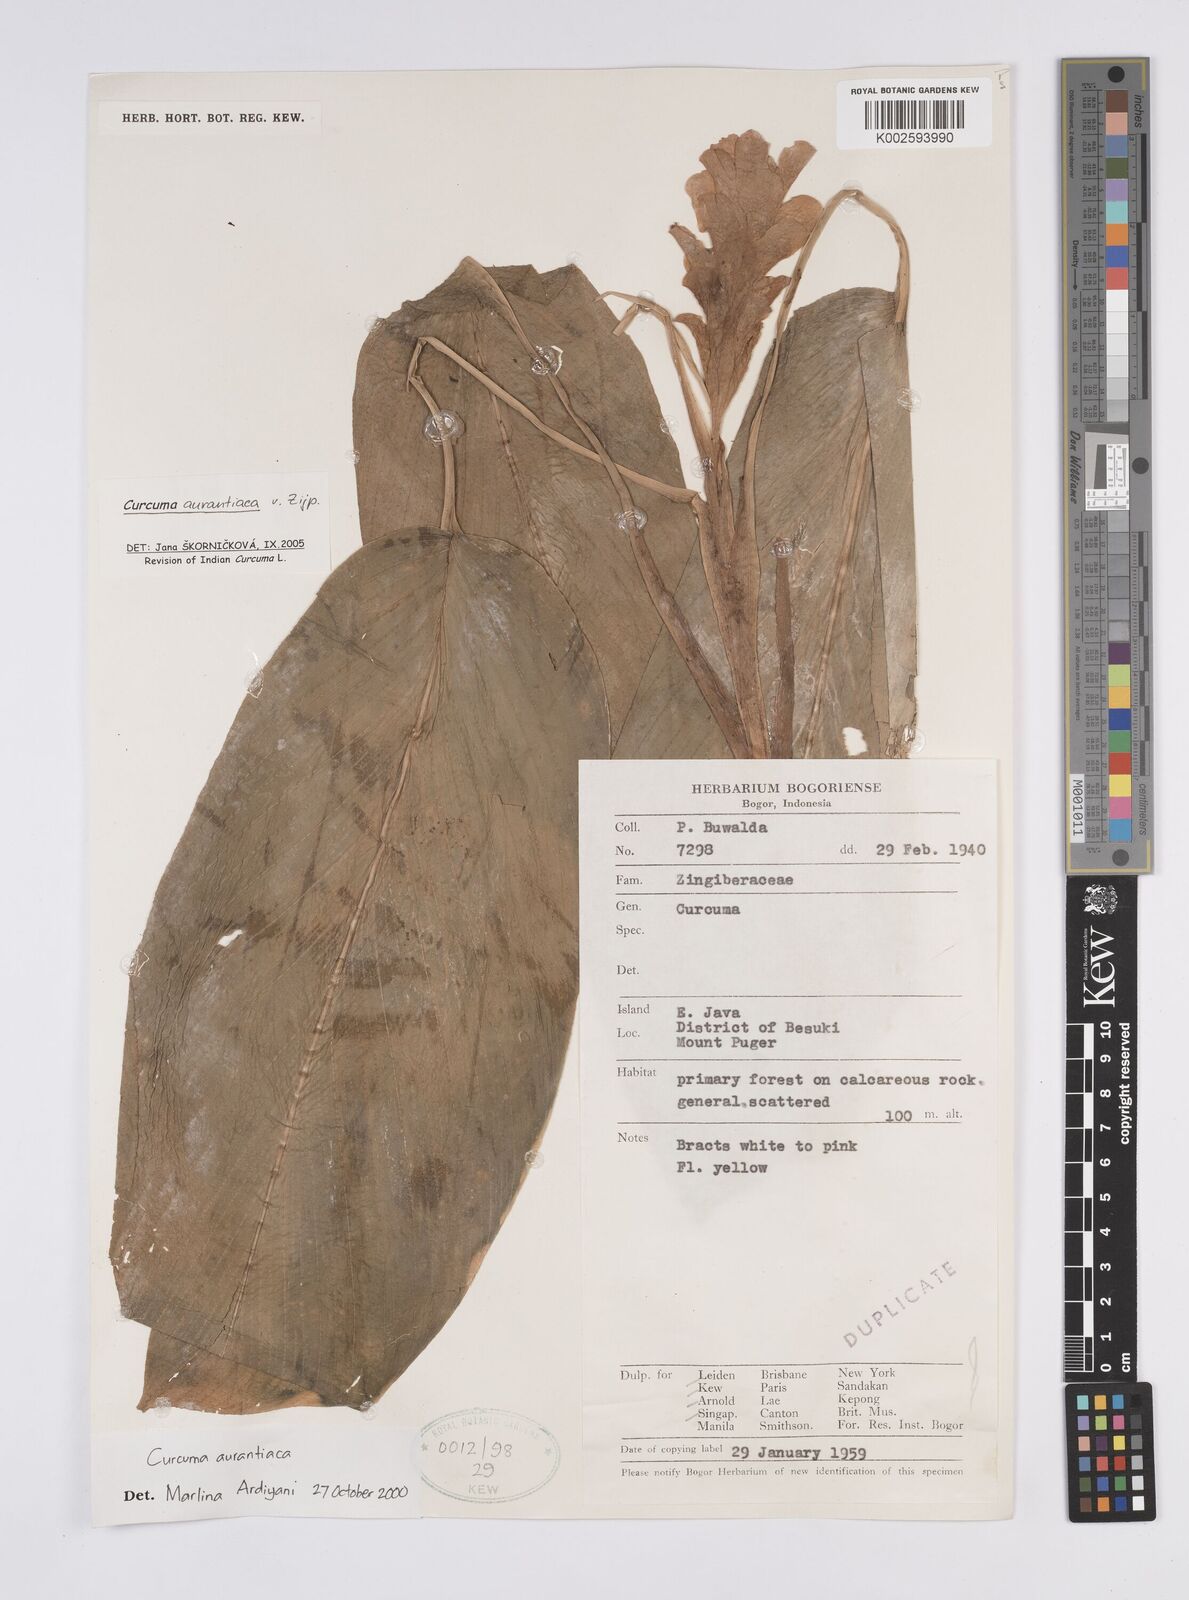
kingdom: Plantae
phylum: Tracheophyta
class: Liliopsida
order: Zingiberales
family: Zingiberaceae
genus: Curcuma
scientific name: Curcuma aurantiaca
